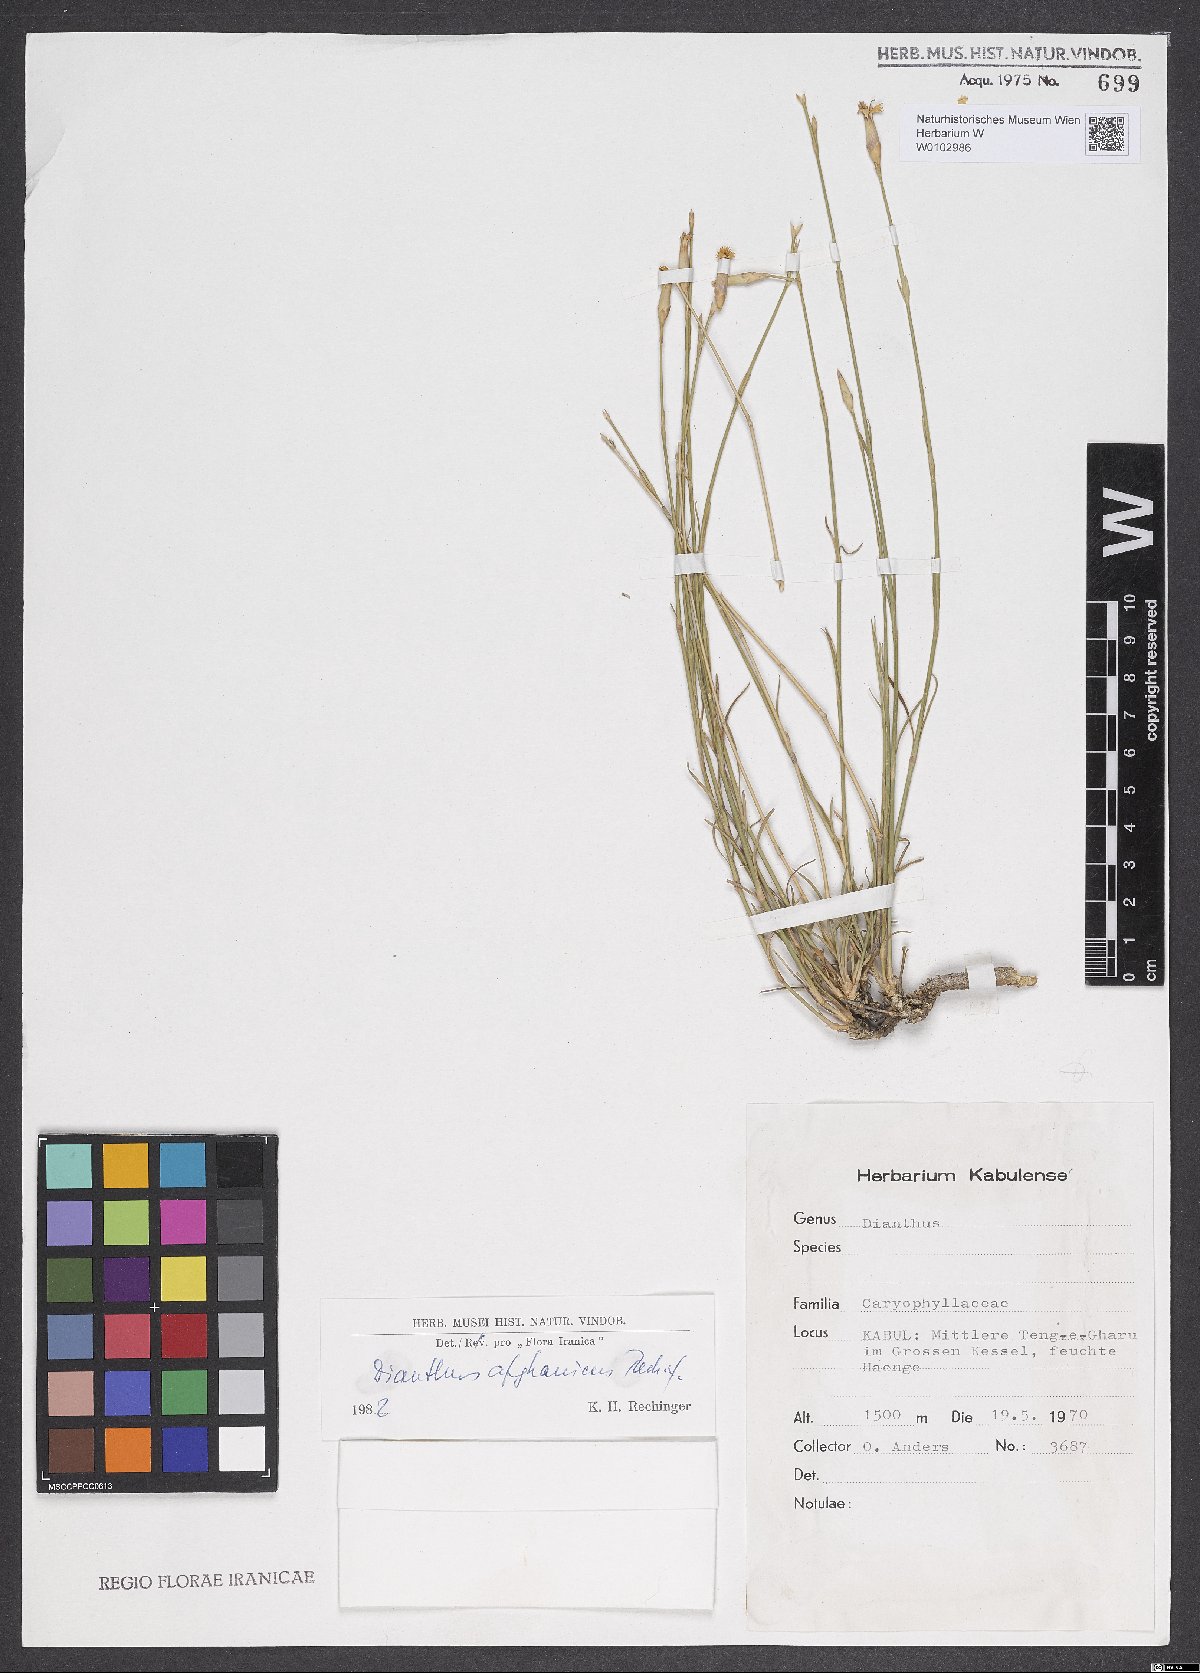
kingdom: Plantae
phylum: Tracheophyta
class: Magnoliopsida
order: Caryophyllales
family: Caryophyllaceae
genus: Dianthus
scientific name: Dianthus afghanicus
